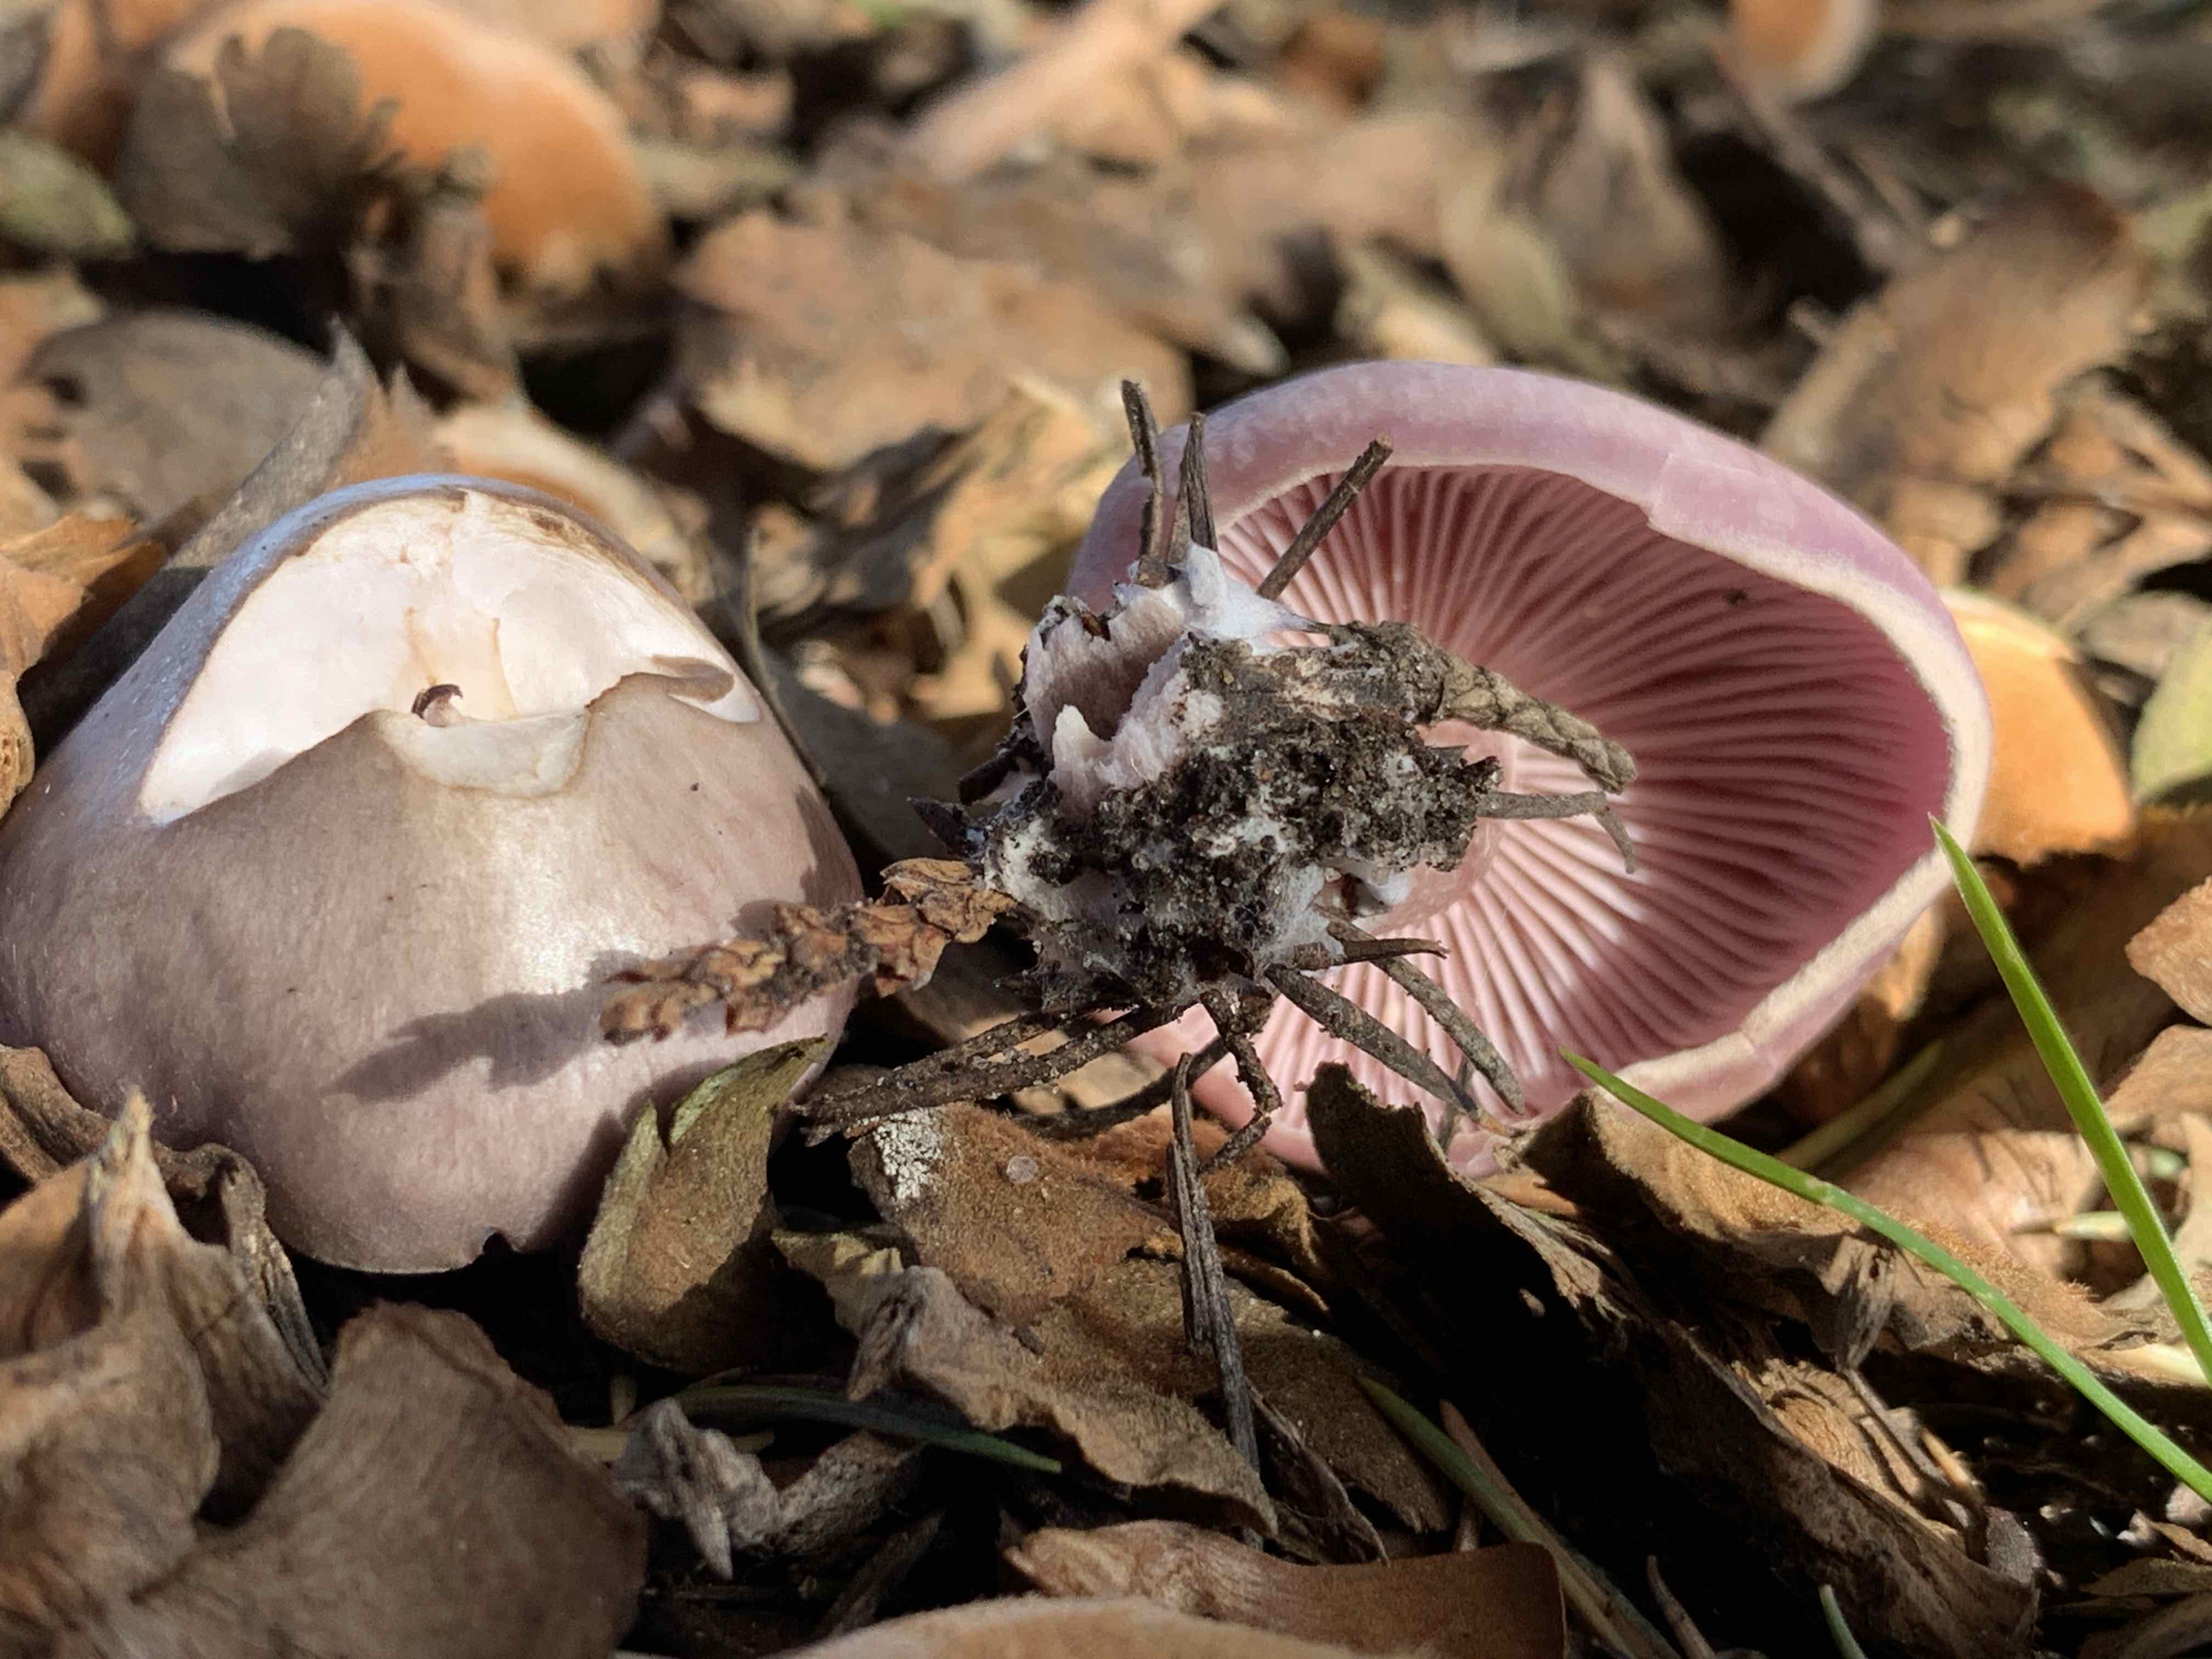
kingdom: Fungi
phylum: Basidiomycota
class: Agaricomycetes
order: Agaricales
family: Tricholomataceae
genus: Lepista
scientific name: Lepista nuda
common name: violet hekseringshat
